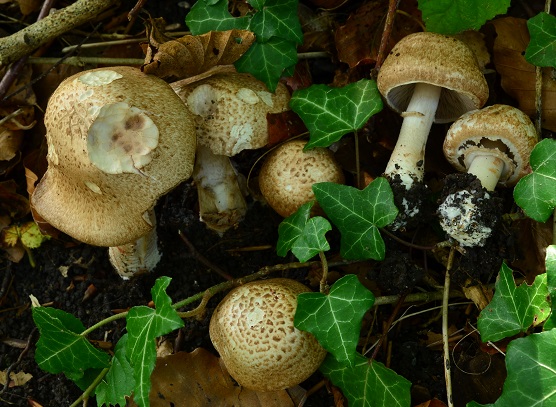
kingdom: Fungi
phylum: Basidiomycota
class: Agaricomycetes
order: Agaricales
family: Agaricaceae
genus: Agaricus
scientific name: Agaricus sylvaticus
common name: lille blod-champignon
